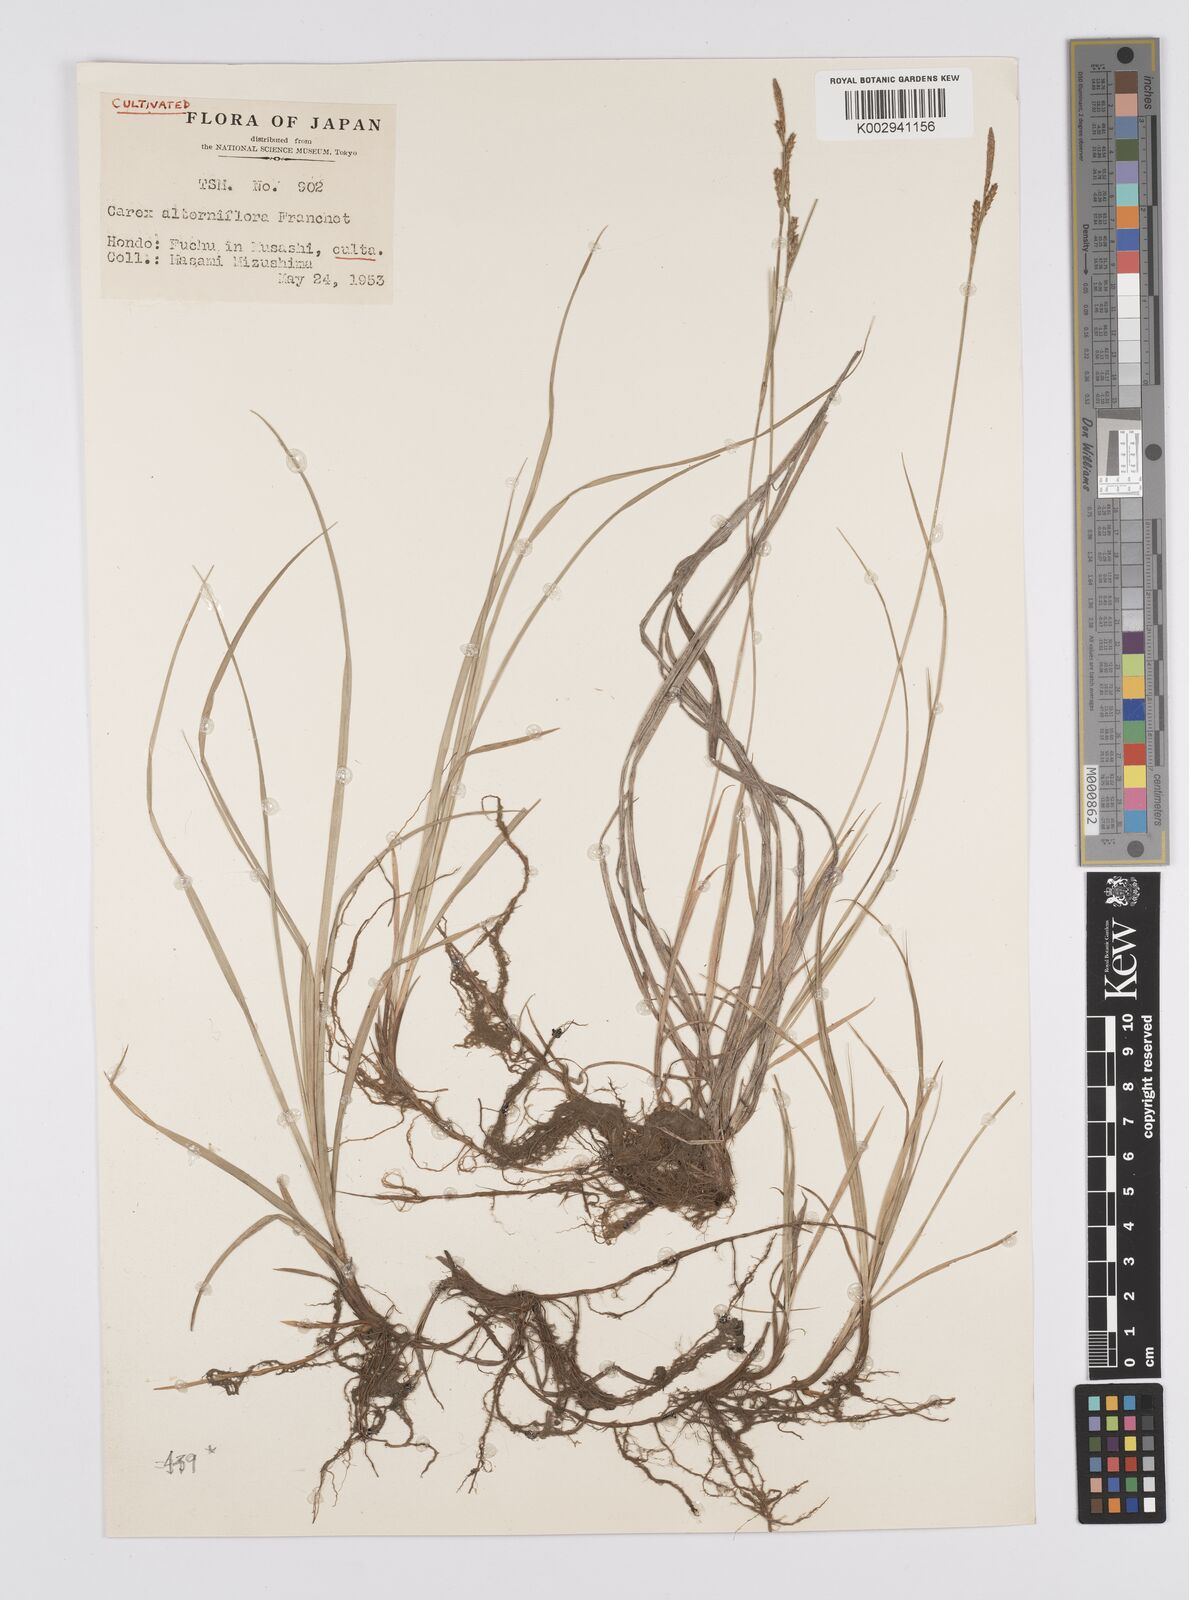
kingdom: Plantae
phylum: Tracheophyta
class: Liliopsida
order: Poales
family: Cyperaceae
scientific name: Cyperaceae
